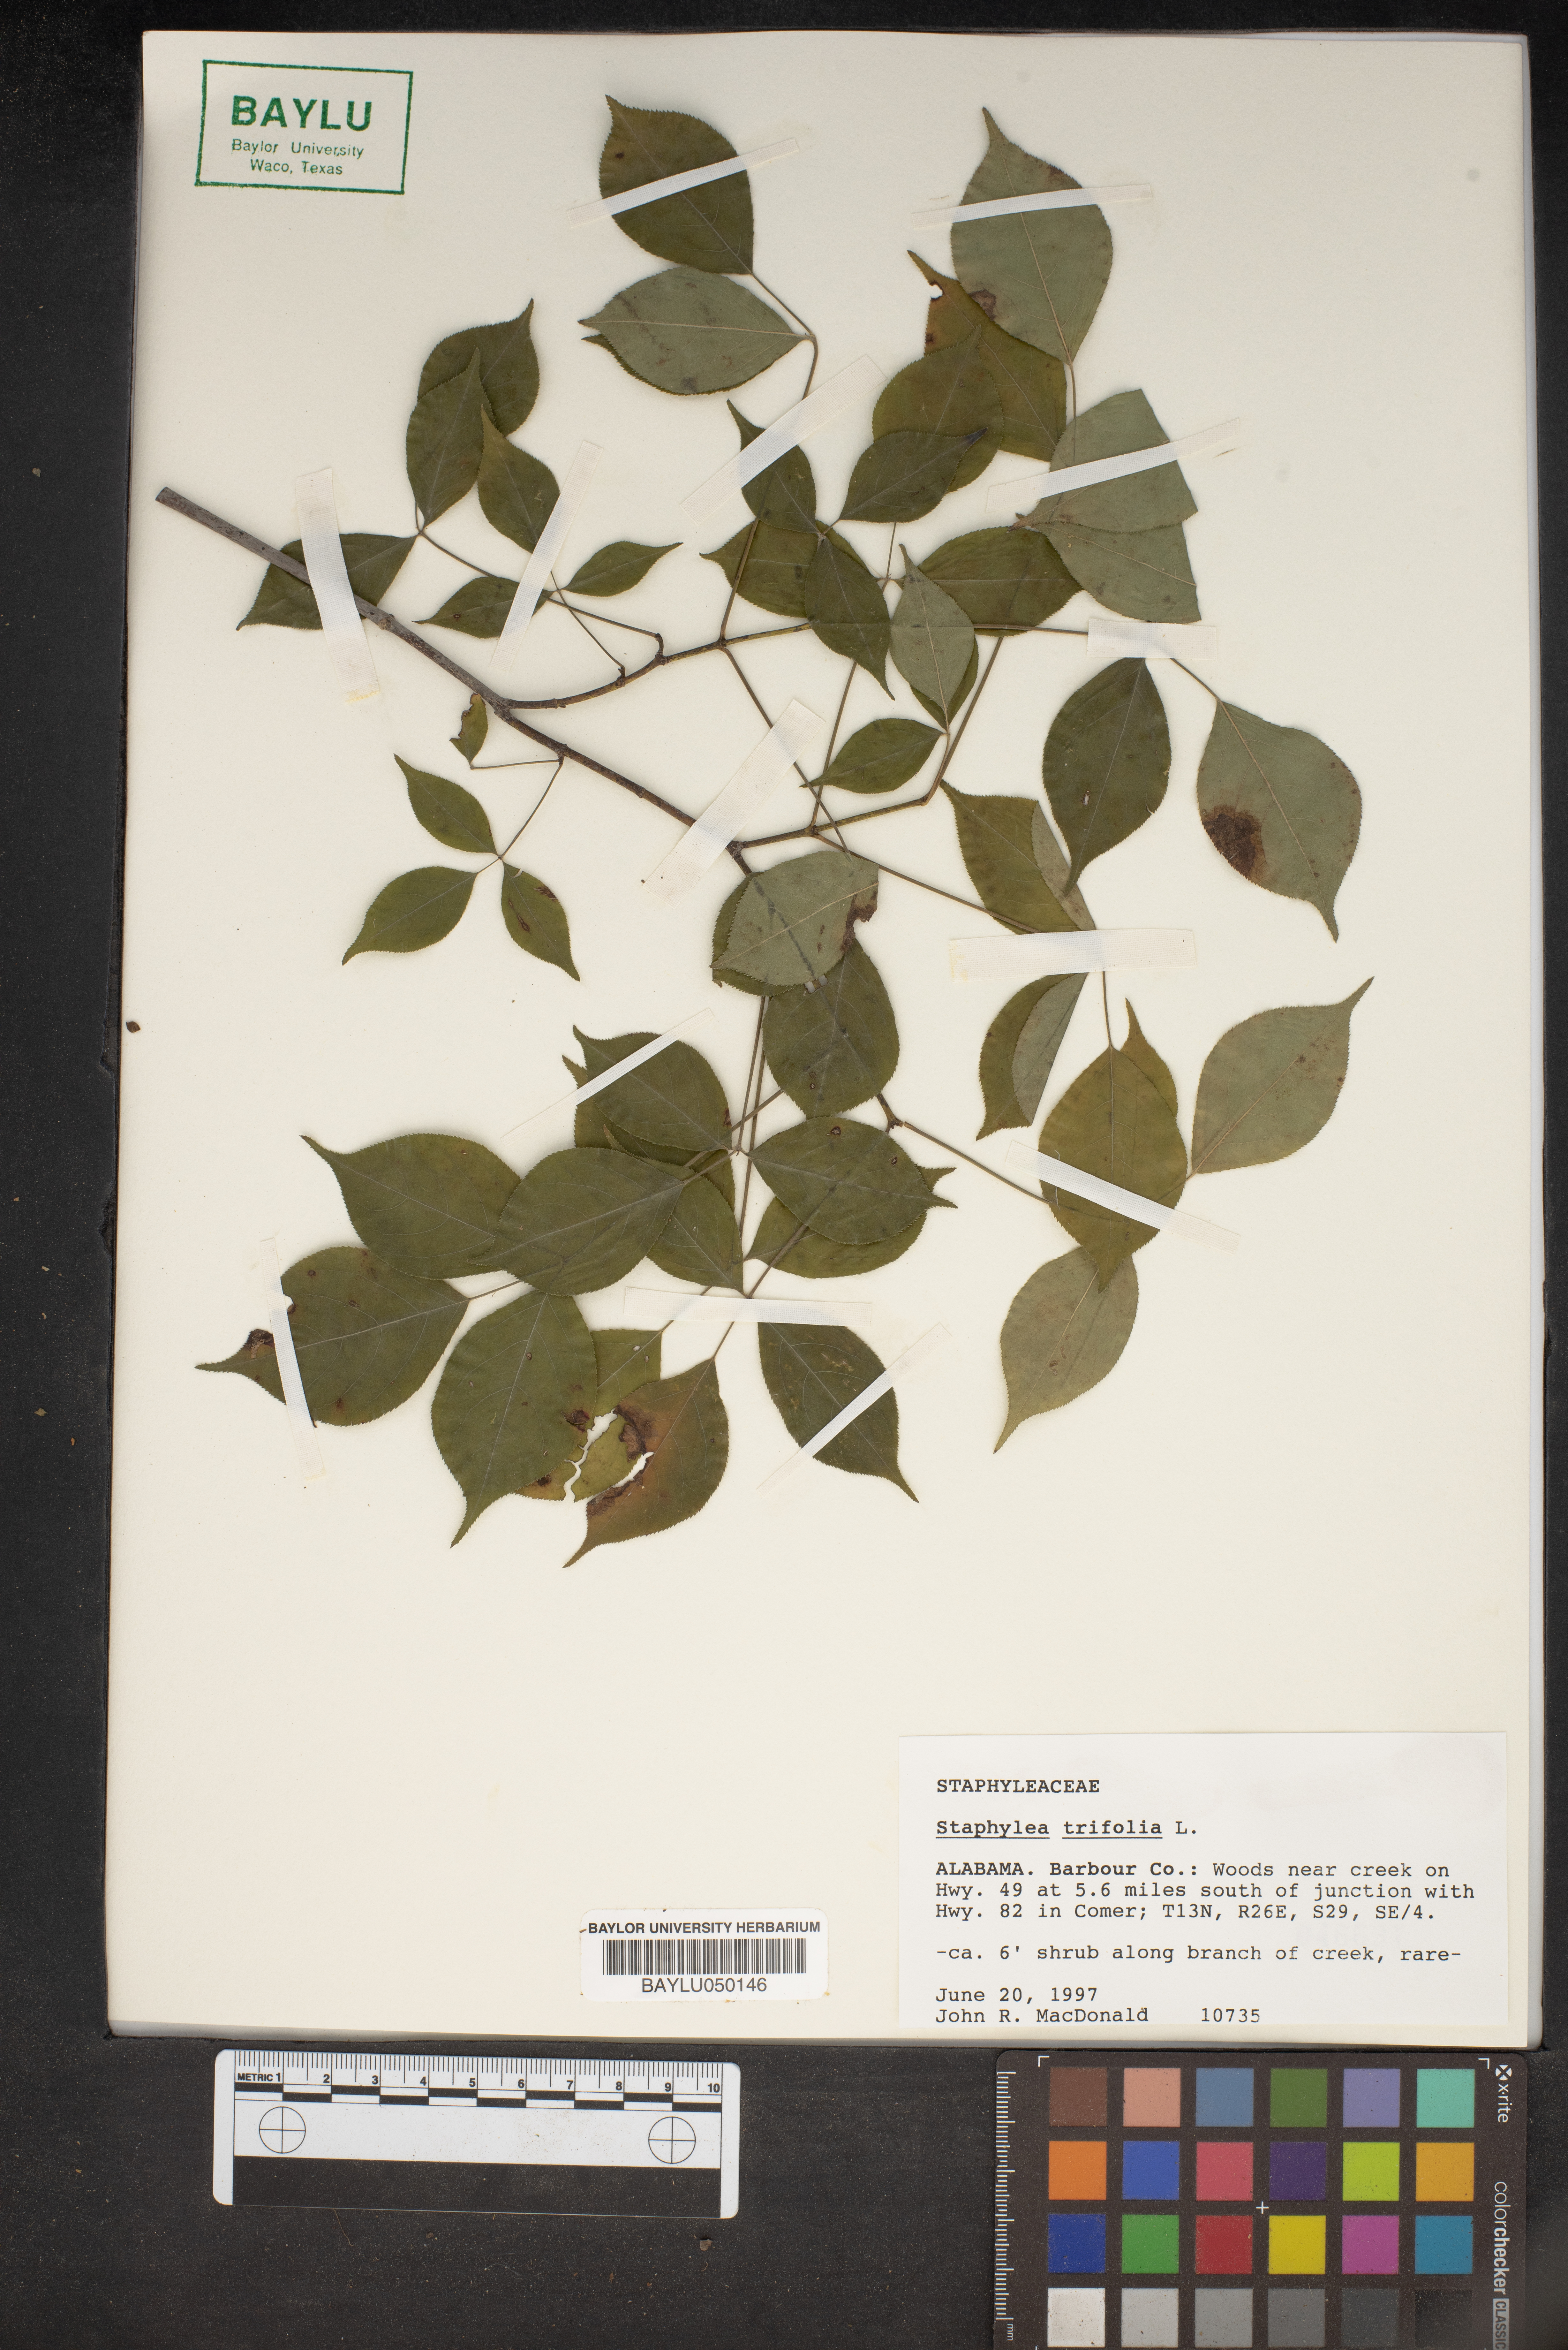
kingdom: Plantae
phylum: Tracheophyta
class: Magnoliopsida
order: Crossosomatales
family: Staphyleaceae
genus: Staphylea
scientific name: Staphylea trifolia
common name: American bladdernut
